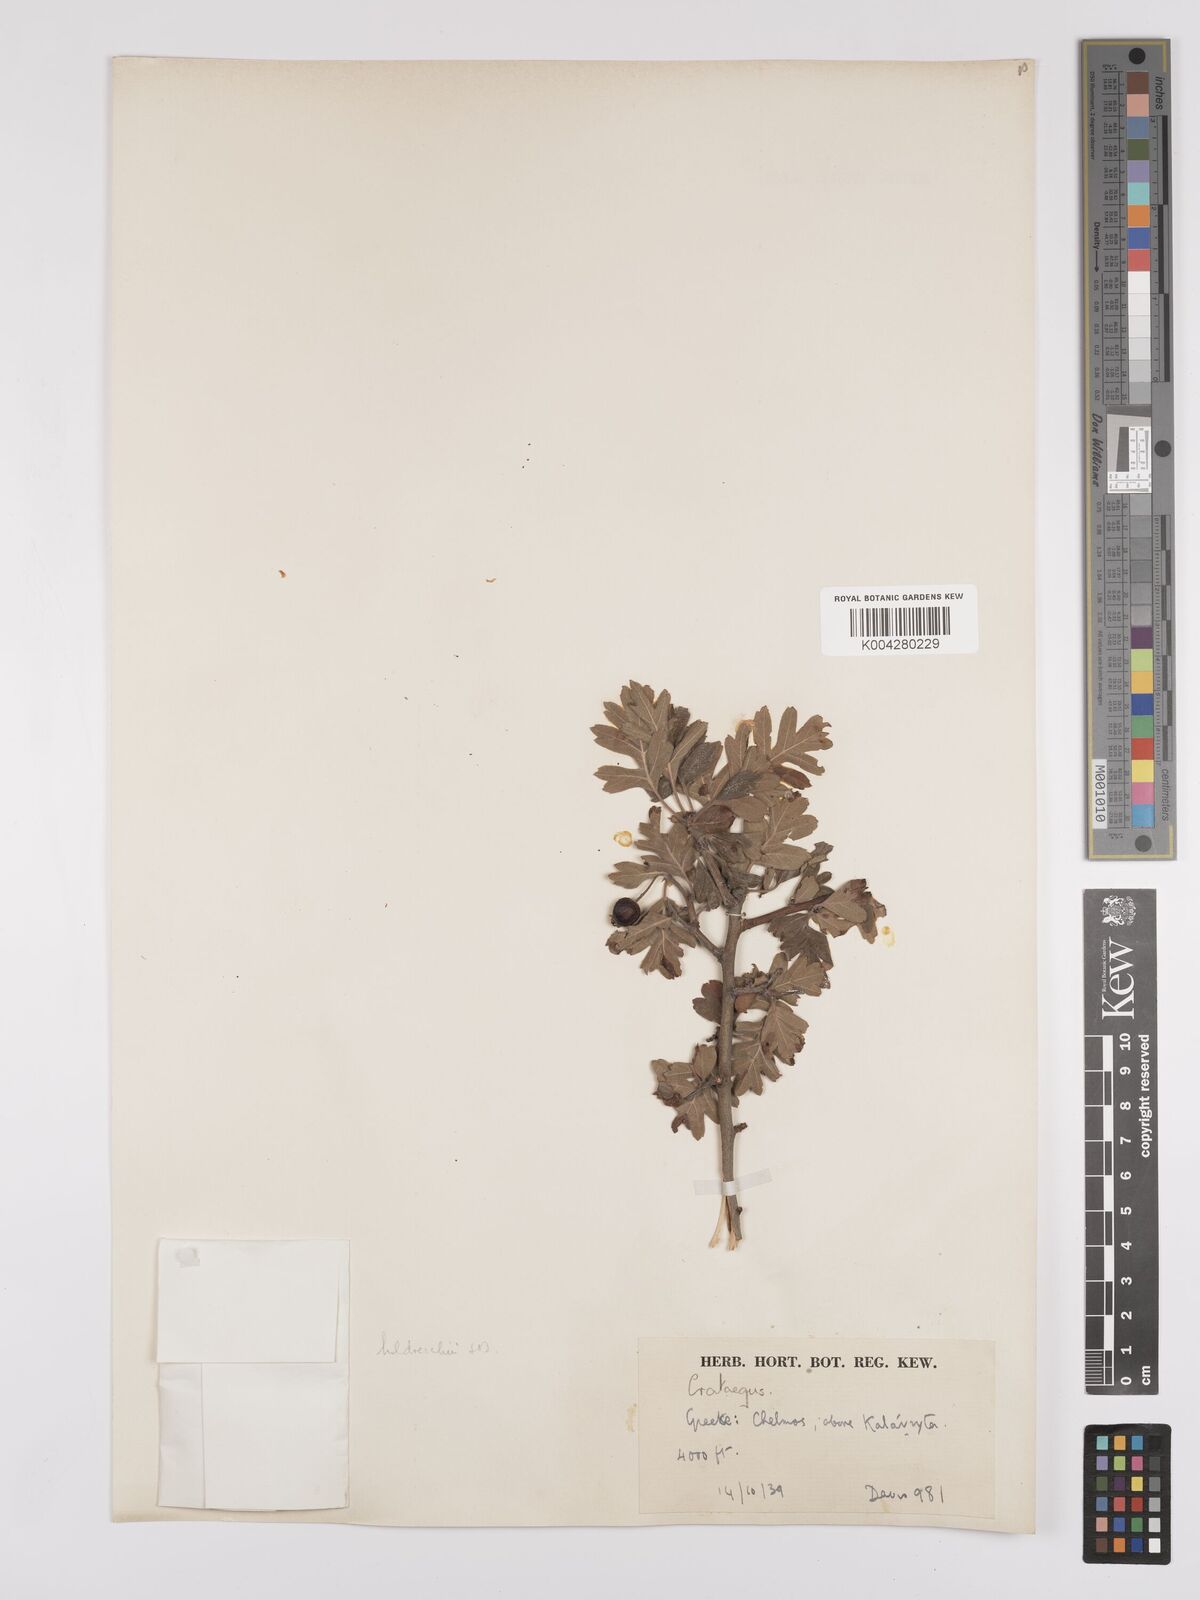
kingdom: Plantae
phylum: Tracheophyta
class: Magnoliopsida
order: Rosales
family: Rosaceae
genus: Crataegus
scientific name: Crataegus heldreichii
